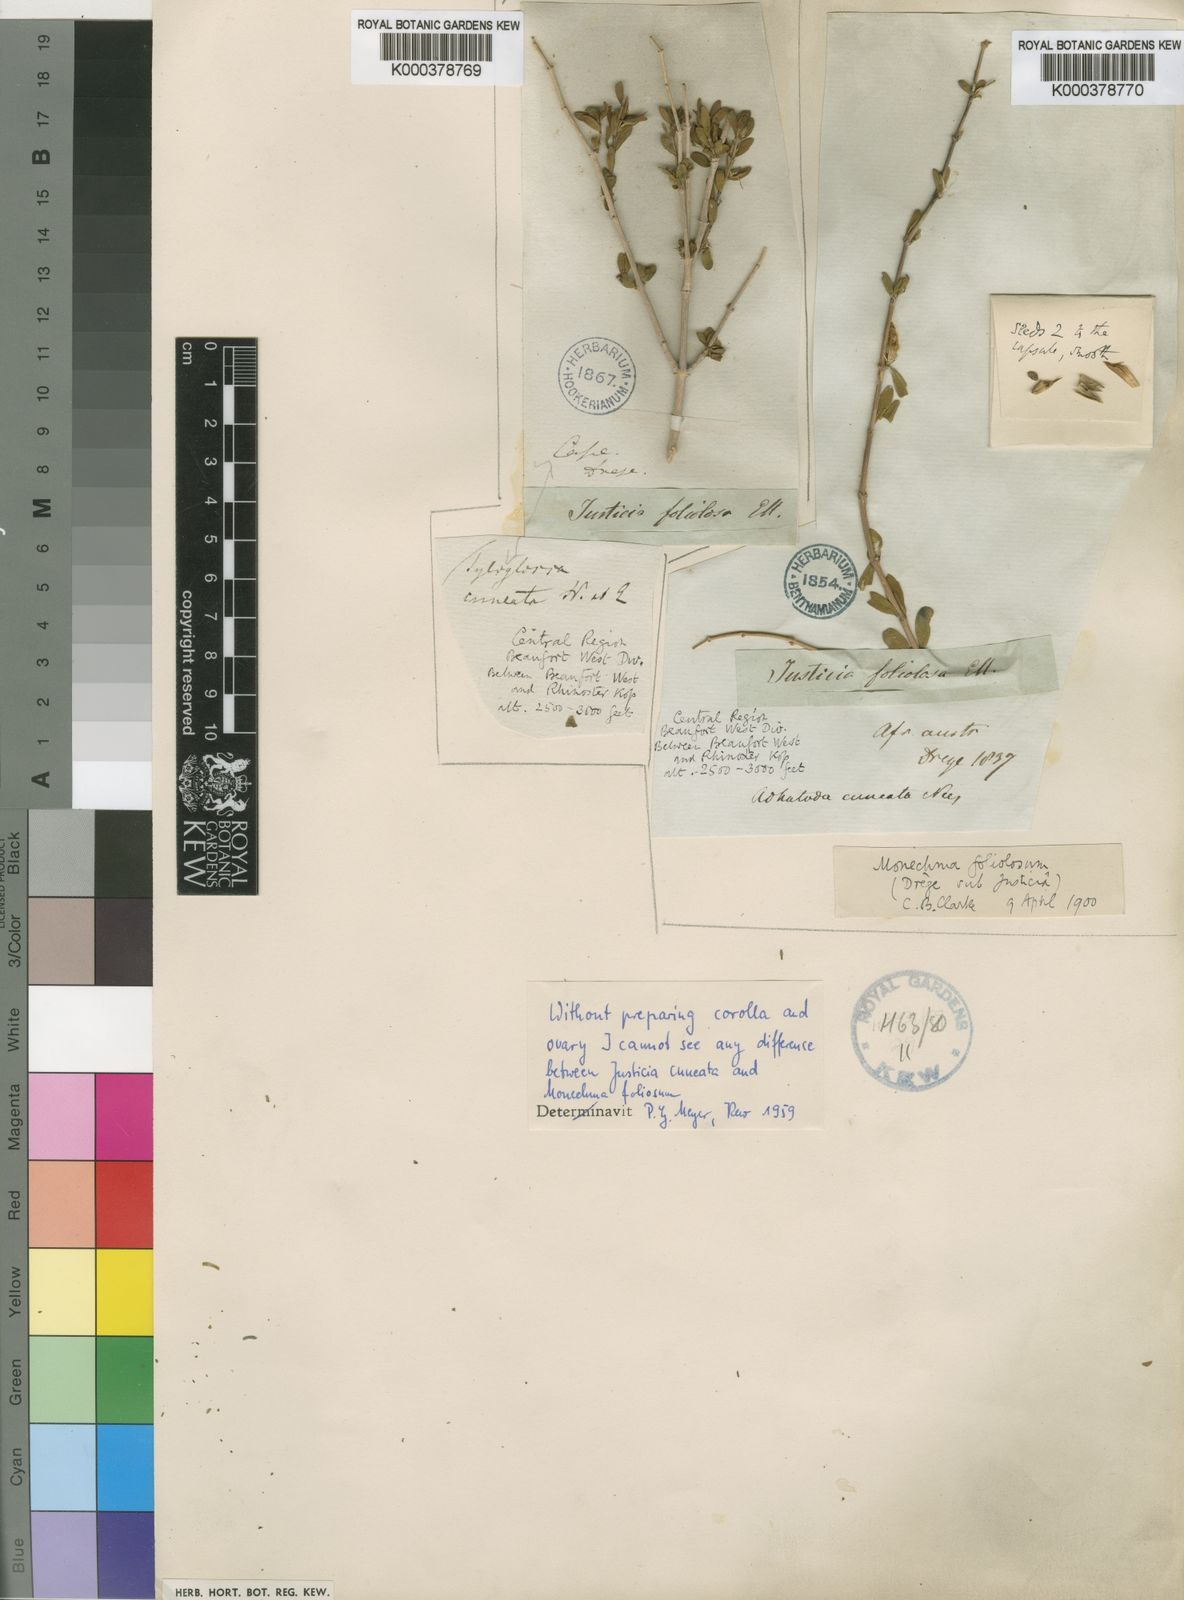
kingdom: Plantae
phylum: Tracheophyta
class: Magnoliopsida
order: Lamiales
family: Acanthaceae
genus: Justicia
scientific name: Justicia cuneata
